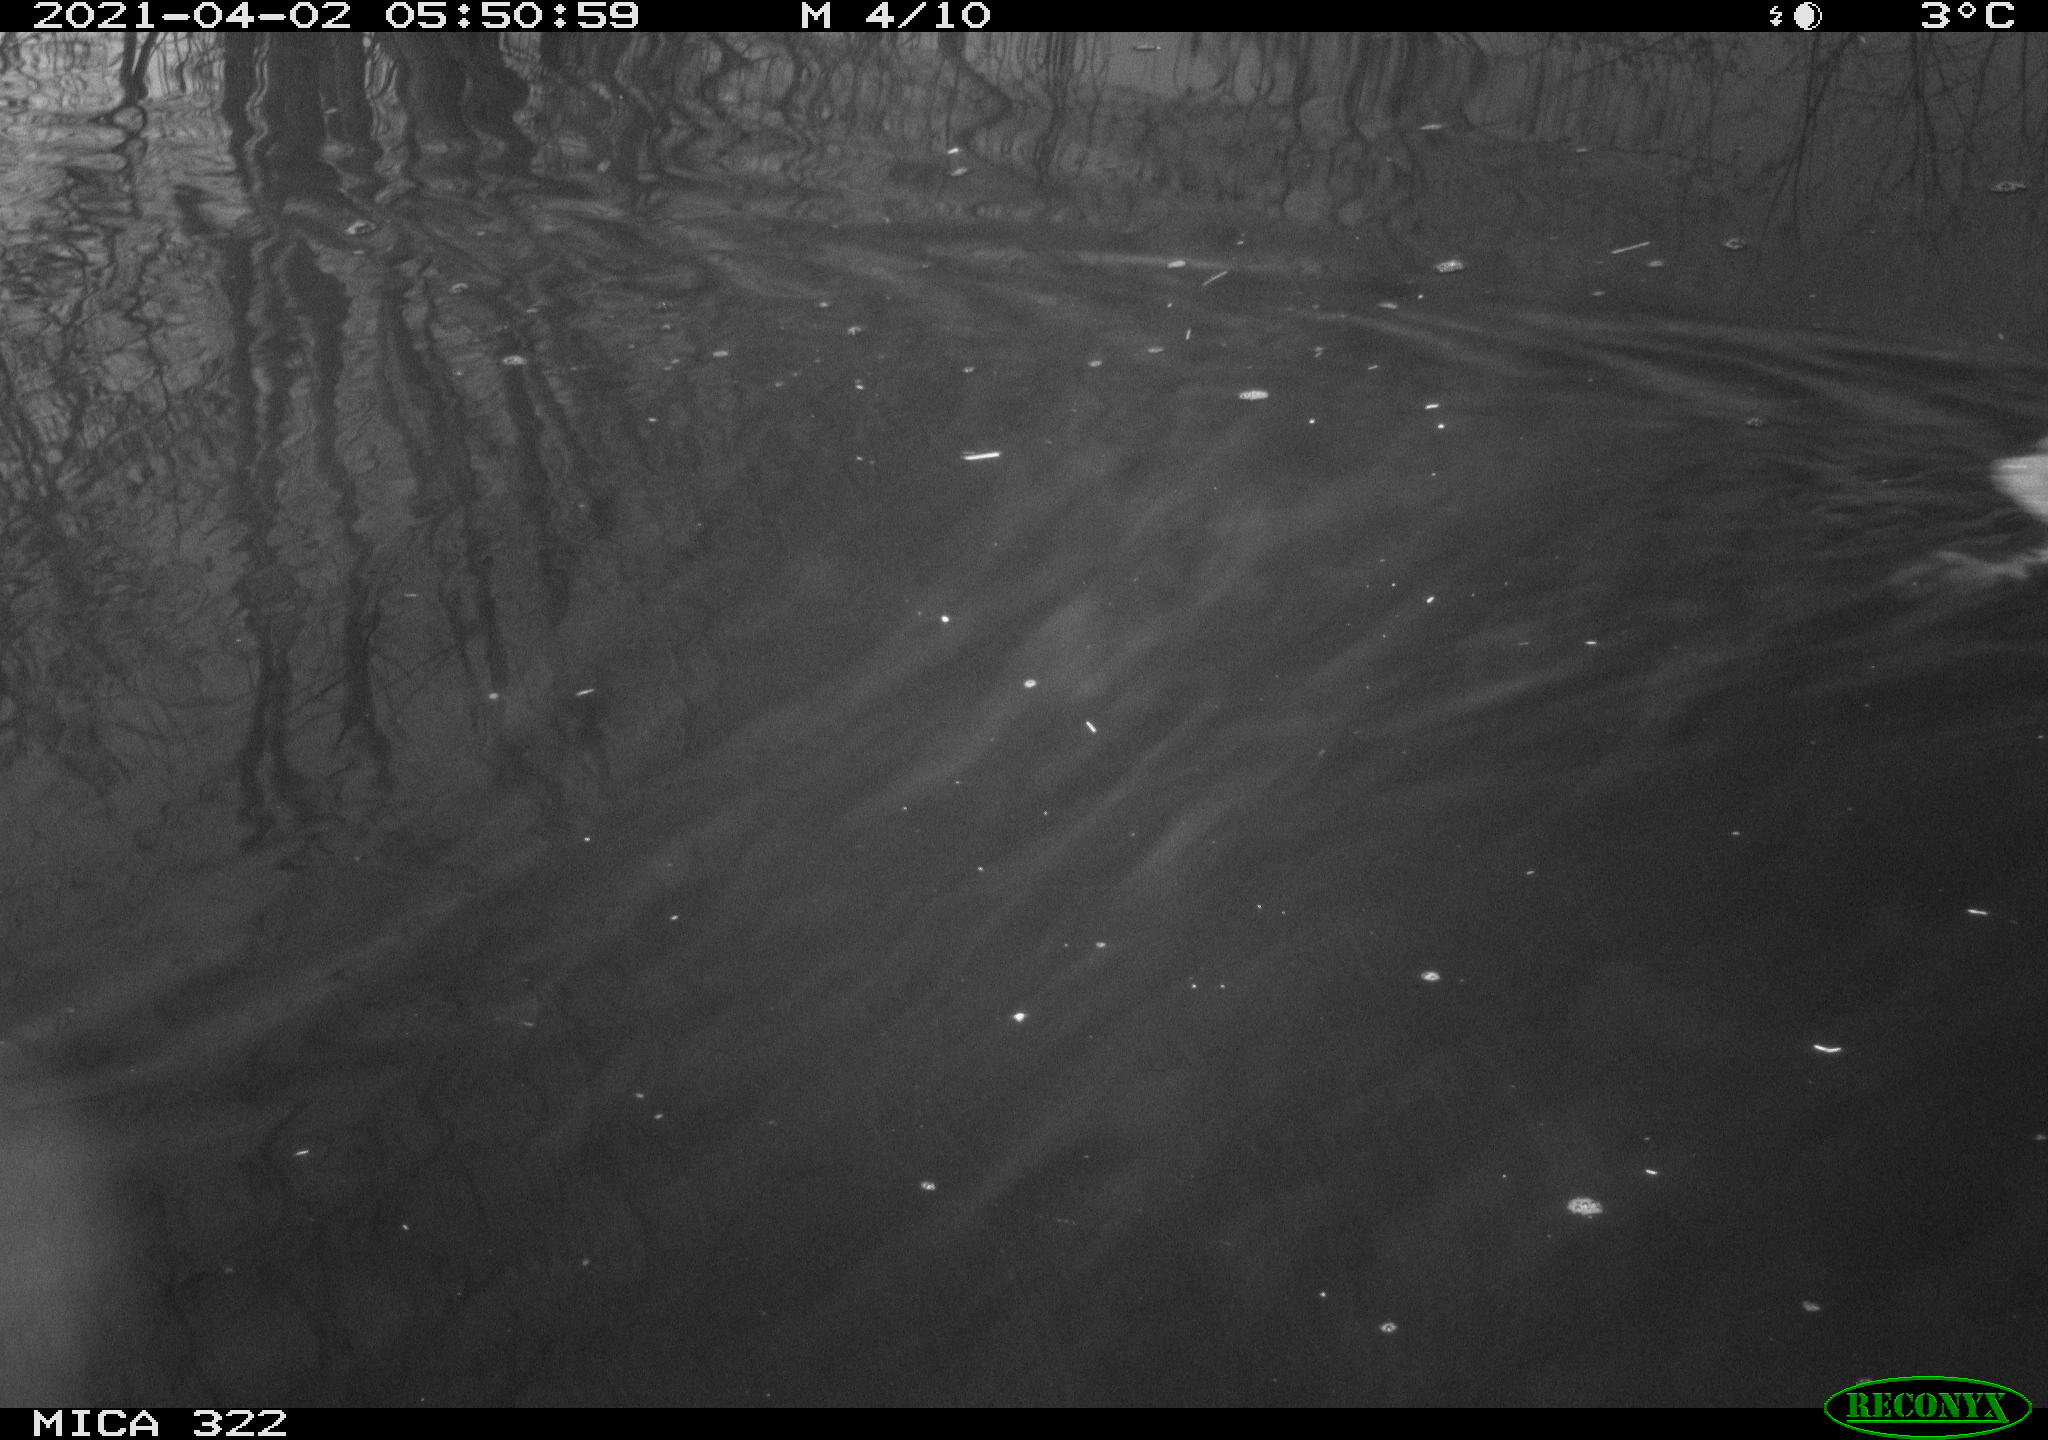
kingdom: Animalia
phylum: Chordata
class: Aves
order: Gruiformes
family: Rallidae
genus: Fulica
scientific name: Fulica atra
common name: Eurasian coot
